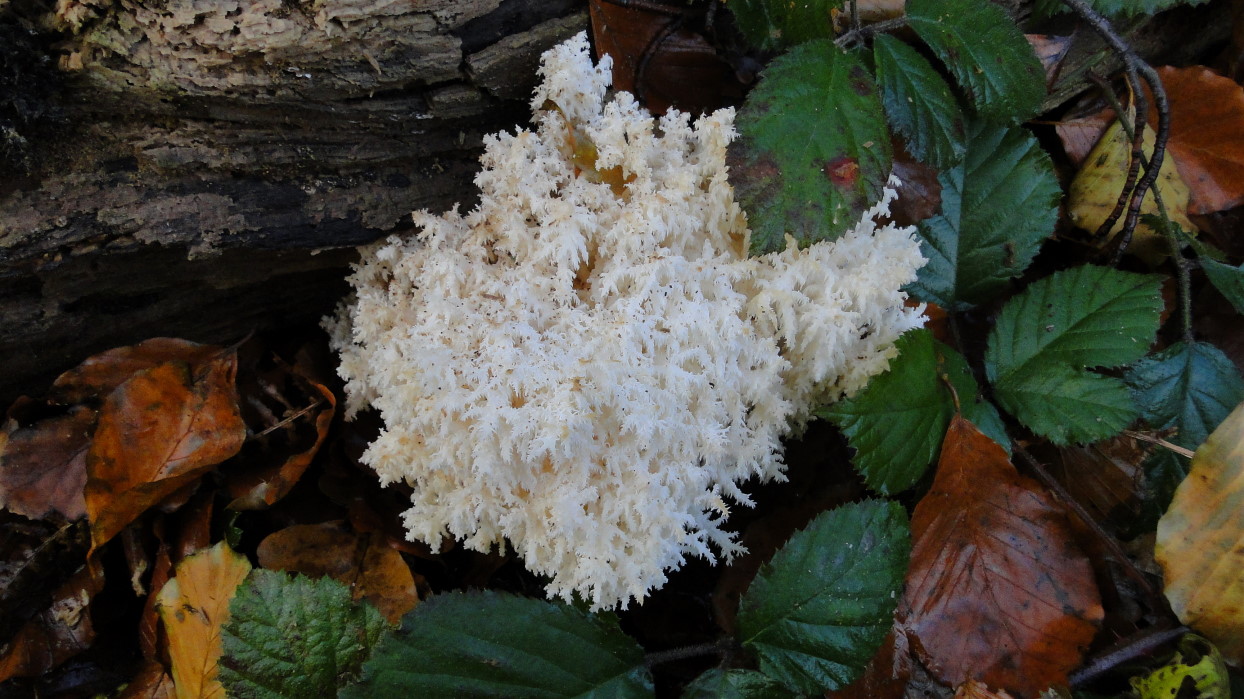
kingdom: Fungi
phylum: Basidiomycota
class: Agaricomycetes
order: Russulales
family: Hericiaceae
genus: Hericium
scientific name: Hericium coralloides
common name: koralpigsvamp
